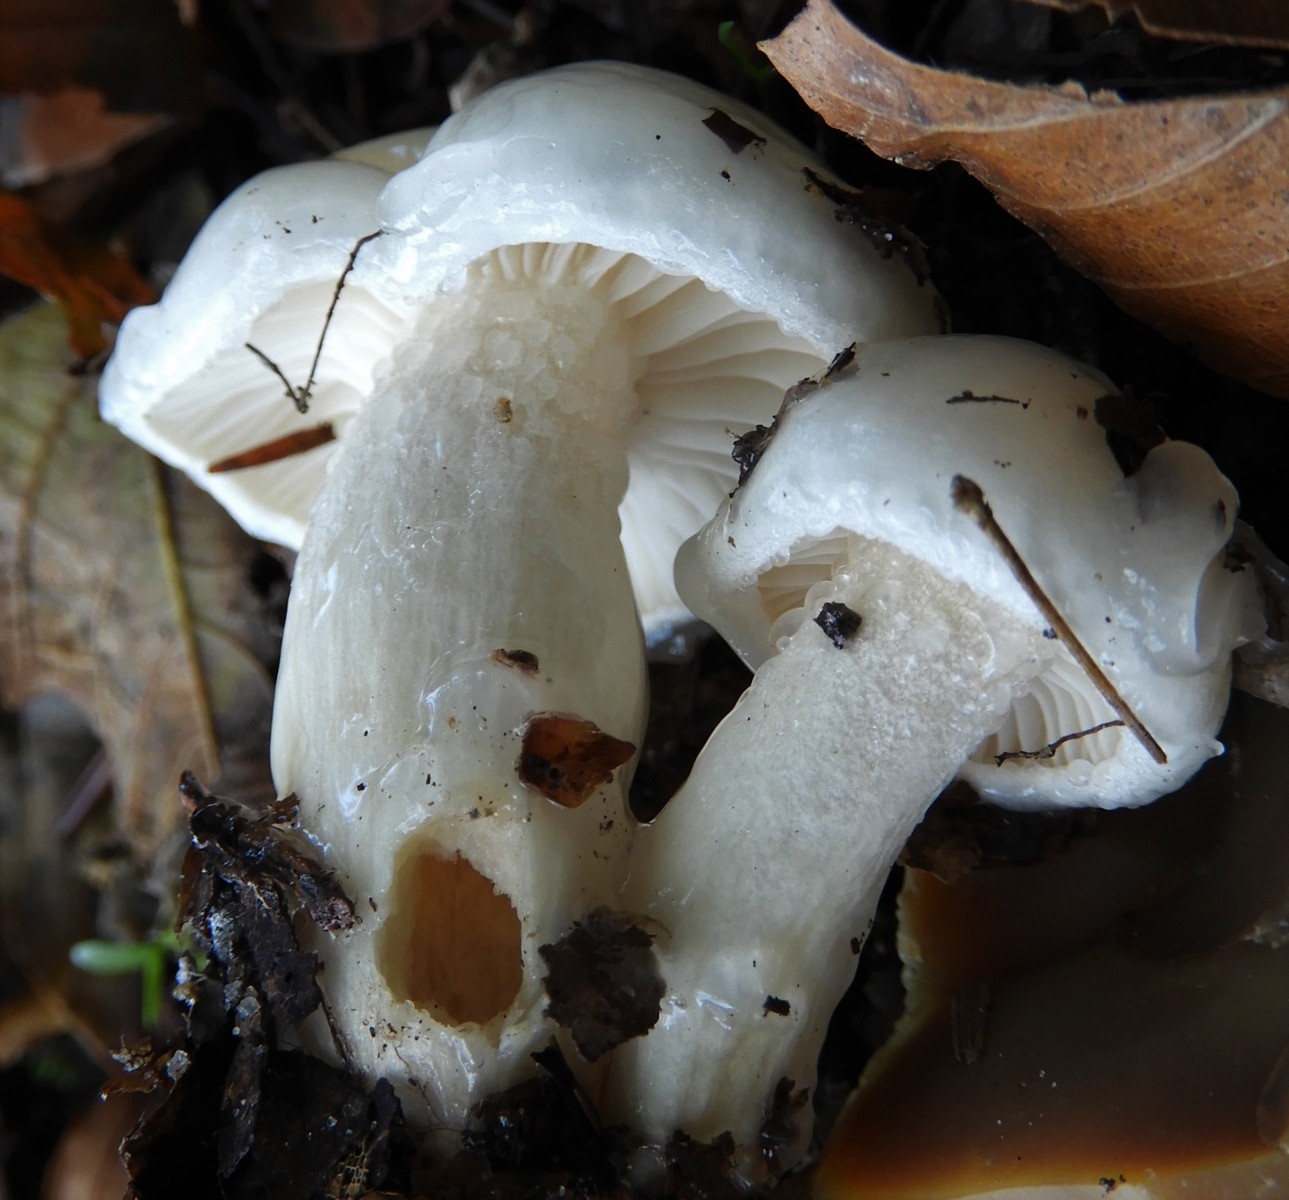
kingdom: Fungi
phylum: Basidiomycota
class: Agaricomycetes
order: Agaricales
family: Hygrophoraceae
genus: Hygrophorus
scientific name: Hygrophorus eburneus
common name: elfenbens-sneglehat
